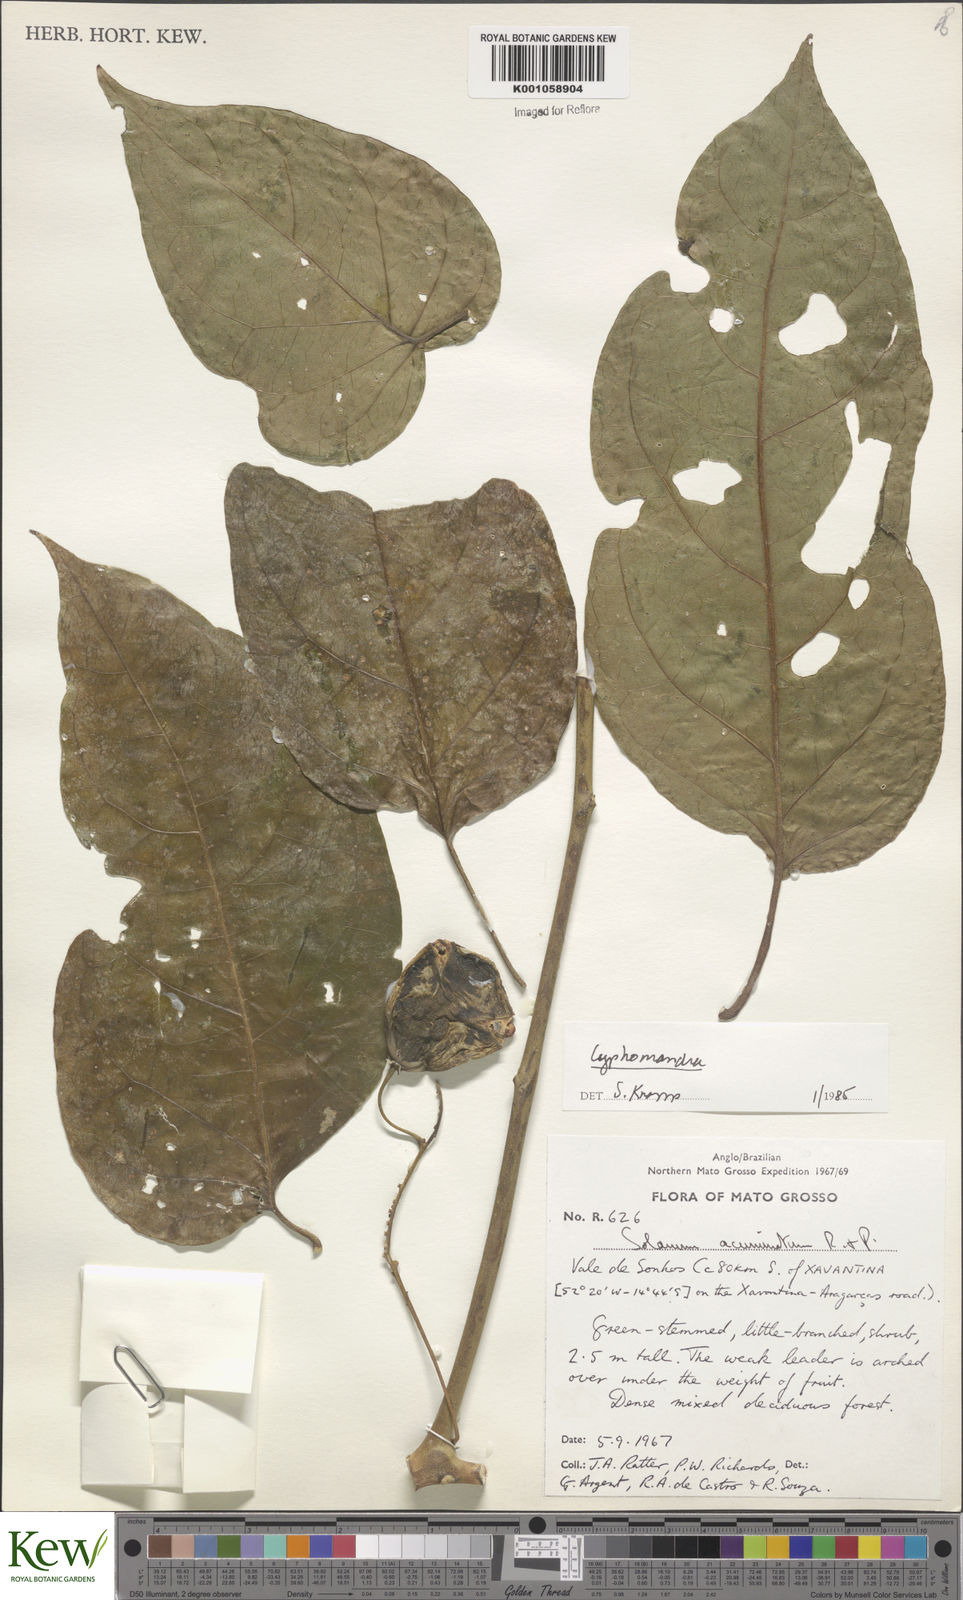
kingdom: Plantae
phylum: Tracheophyta
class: Magnoliopsida
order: Solanales
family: Solanaceae
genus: Solanum
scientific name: Solanum proteanthum
